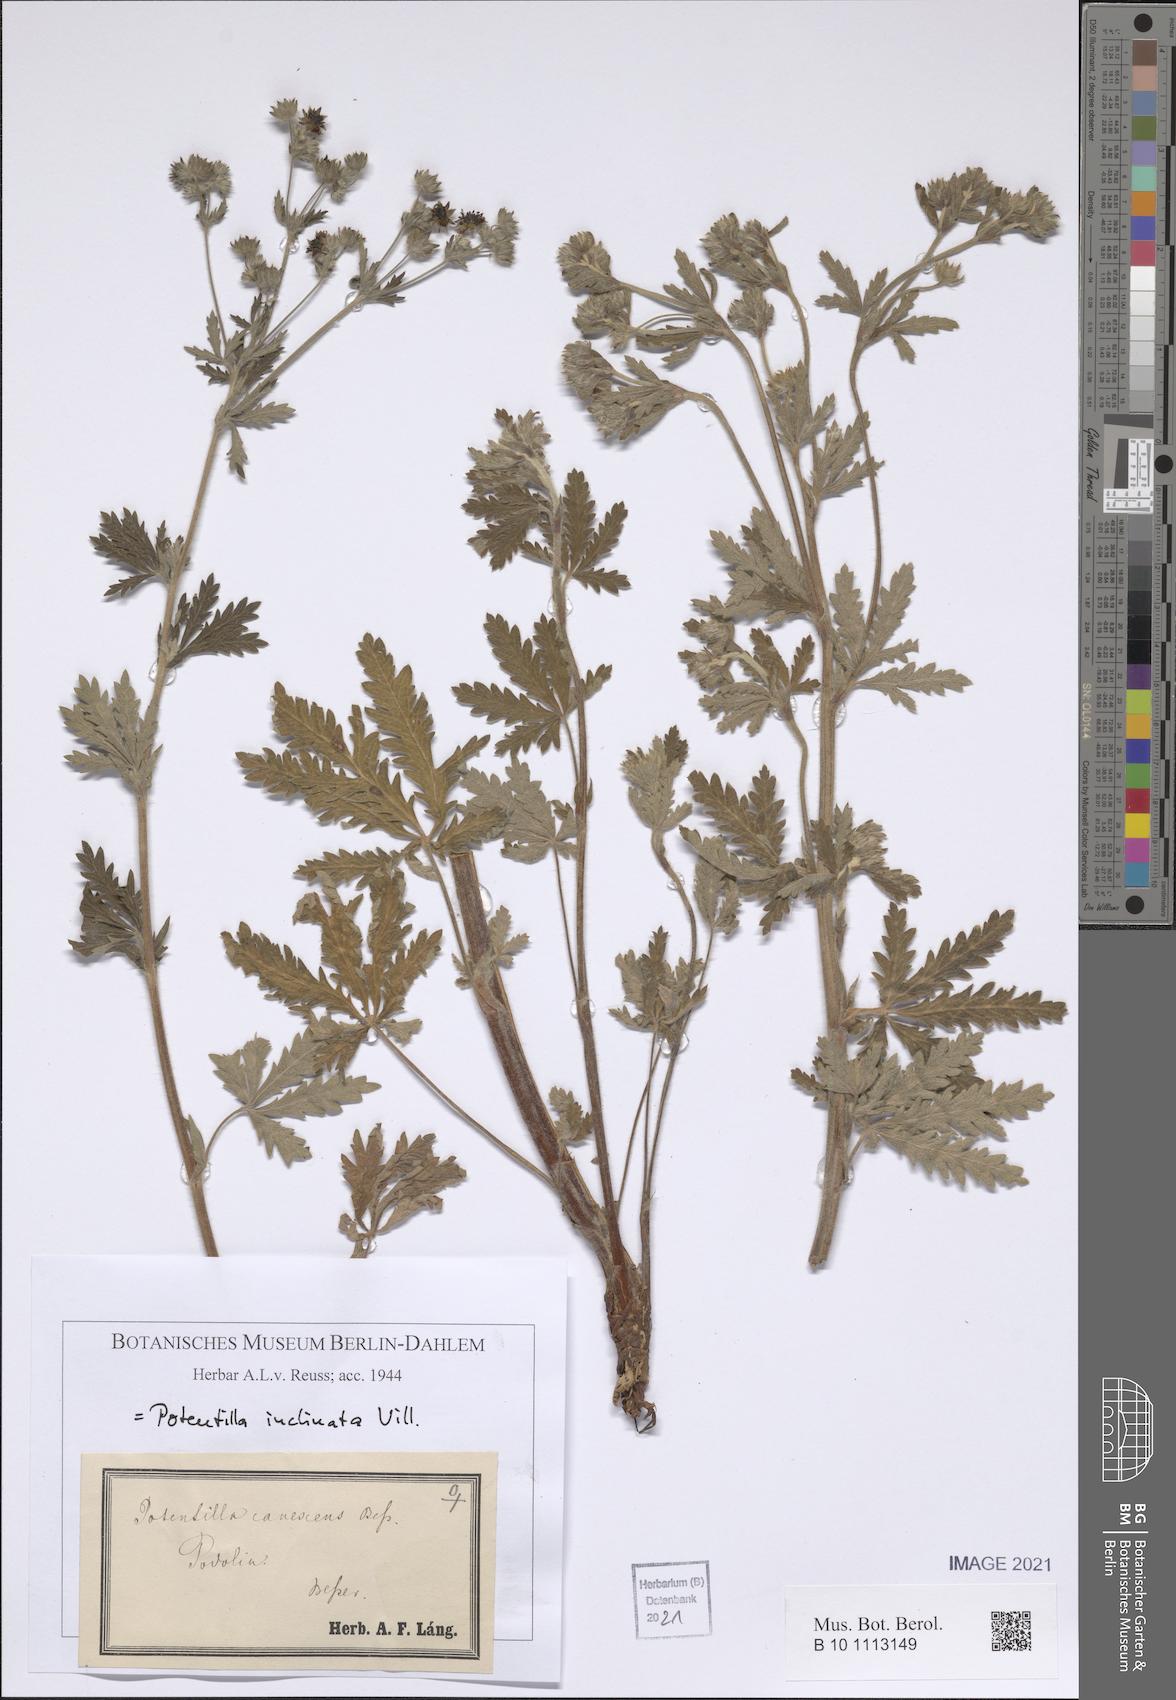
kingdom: Plantae
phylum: Tracheophyta
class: Magnoliopsida
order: Rosales
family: Rosaceae
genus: Potentilla
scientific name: Potentilla inclinata
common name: Grey cinquefoil
